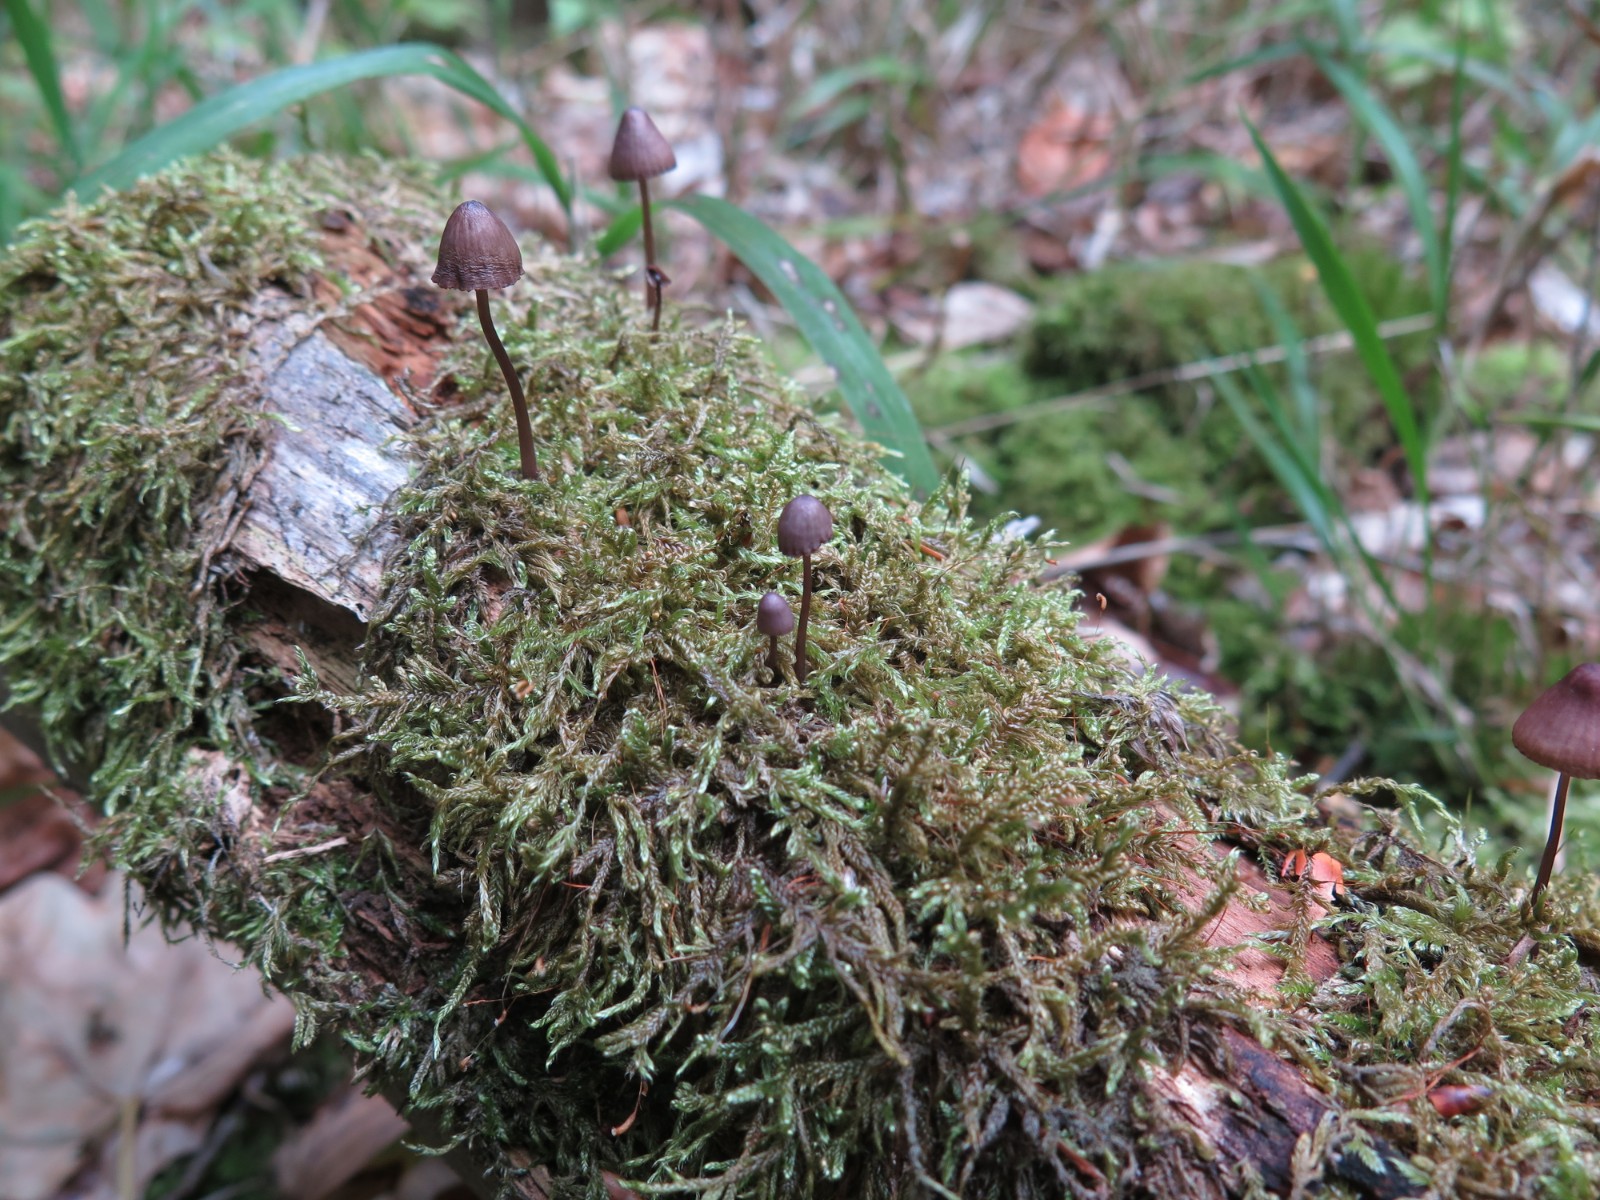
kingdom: Fungi
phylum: Basidiomycota
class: Agaricomycetes
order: Agaricales
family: Mycenaceae
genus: Mycena
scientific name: Mycena sanguinolenta
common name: rødmælket huesvamp
